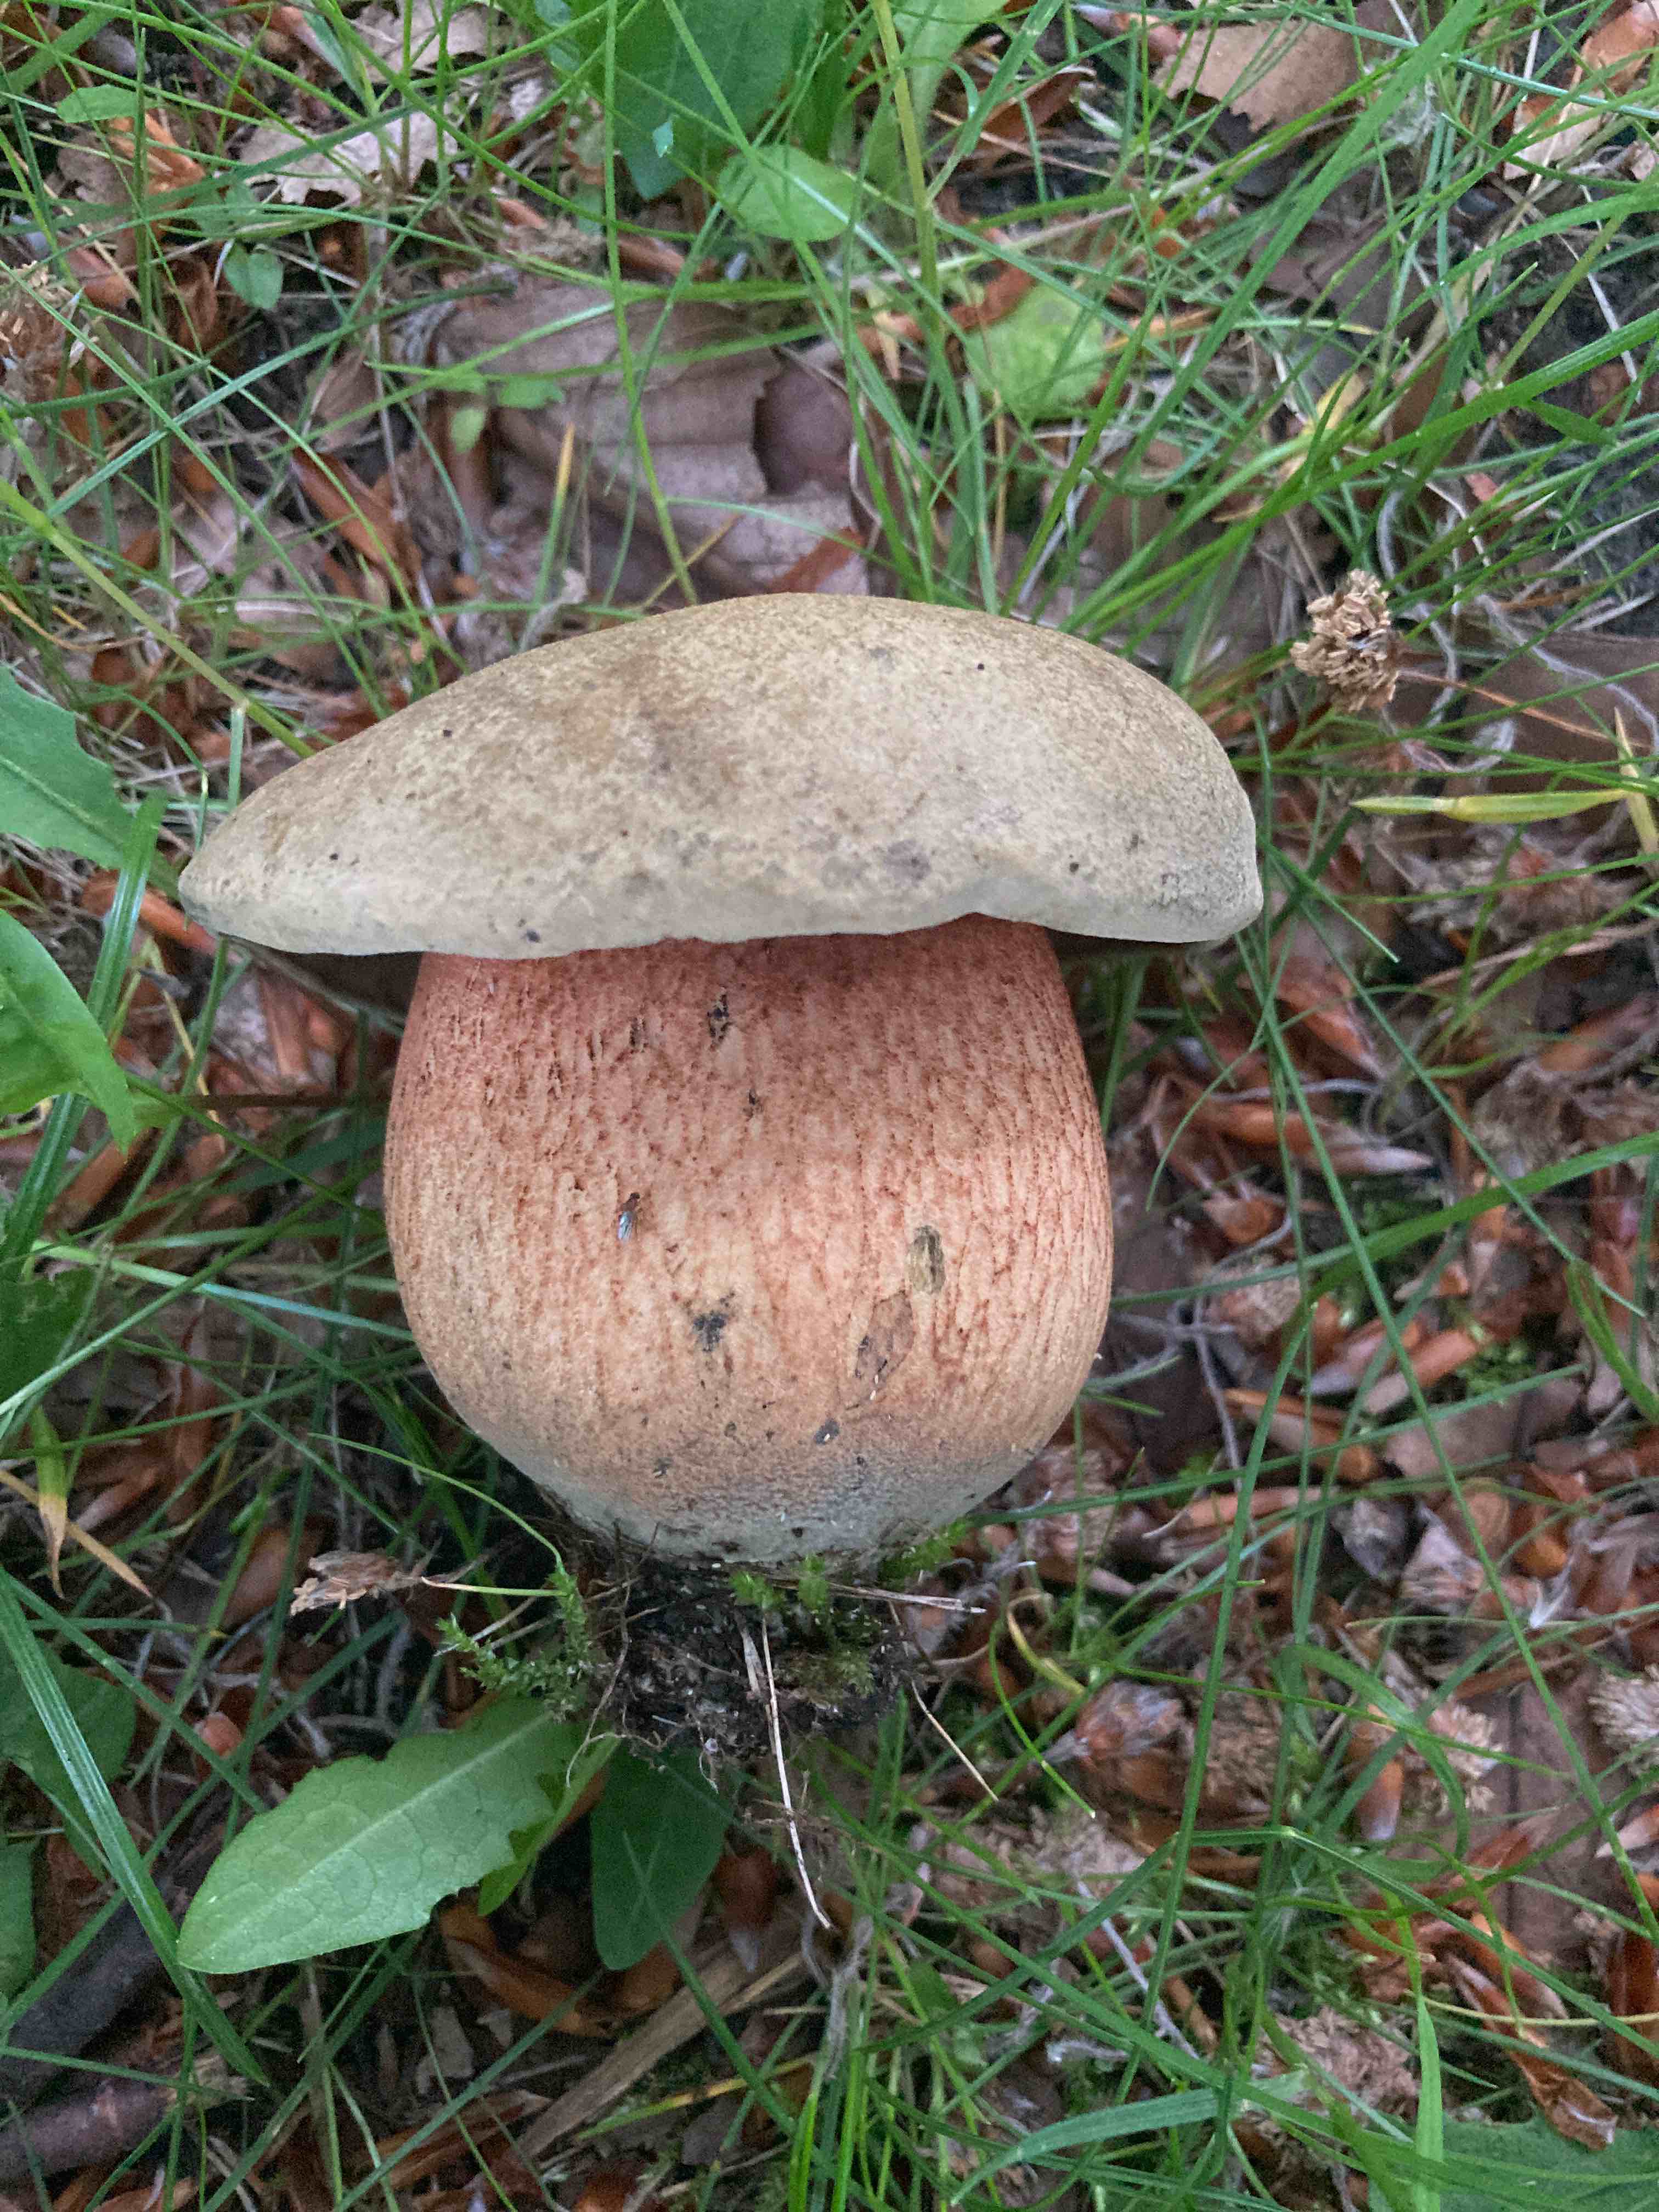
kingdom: Fungi
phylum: Basidiomycota
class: Agaricomycetes
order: Boletales
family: Boletaceae
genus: Suillellus
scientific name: Suillellus luridus
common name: netstokket indigorørhat
